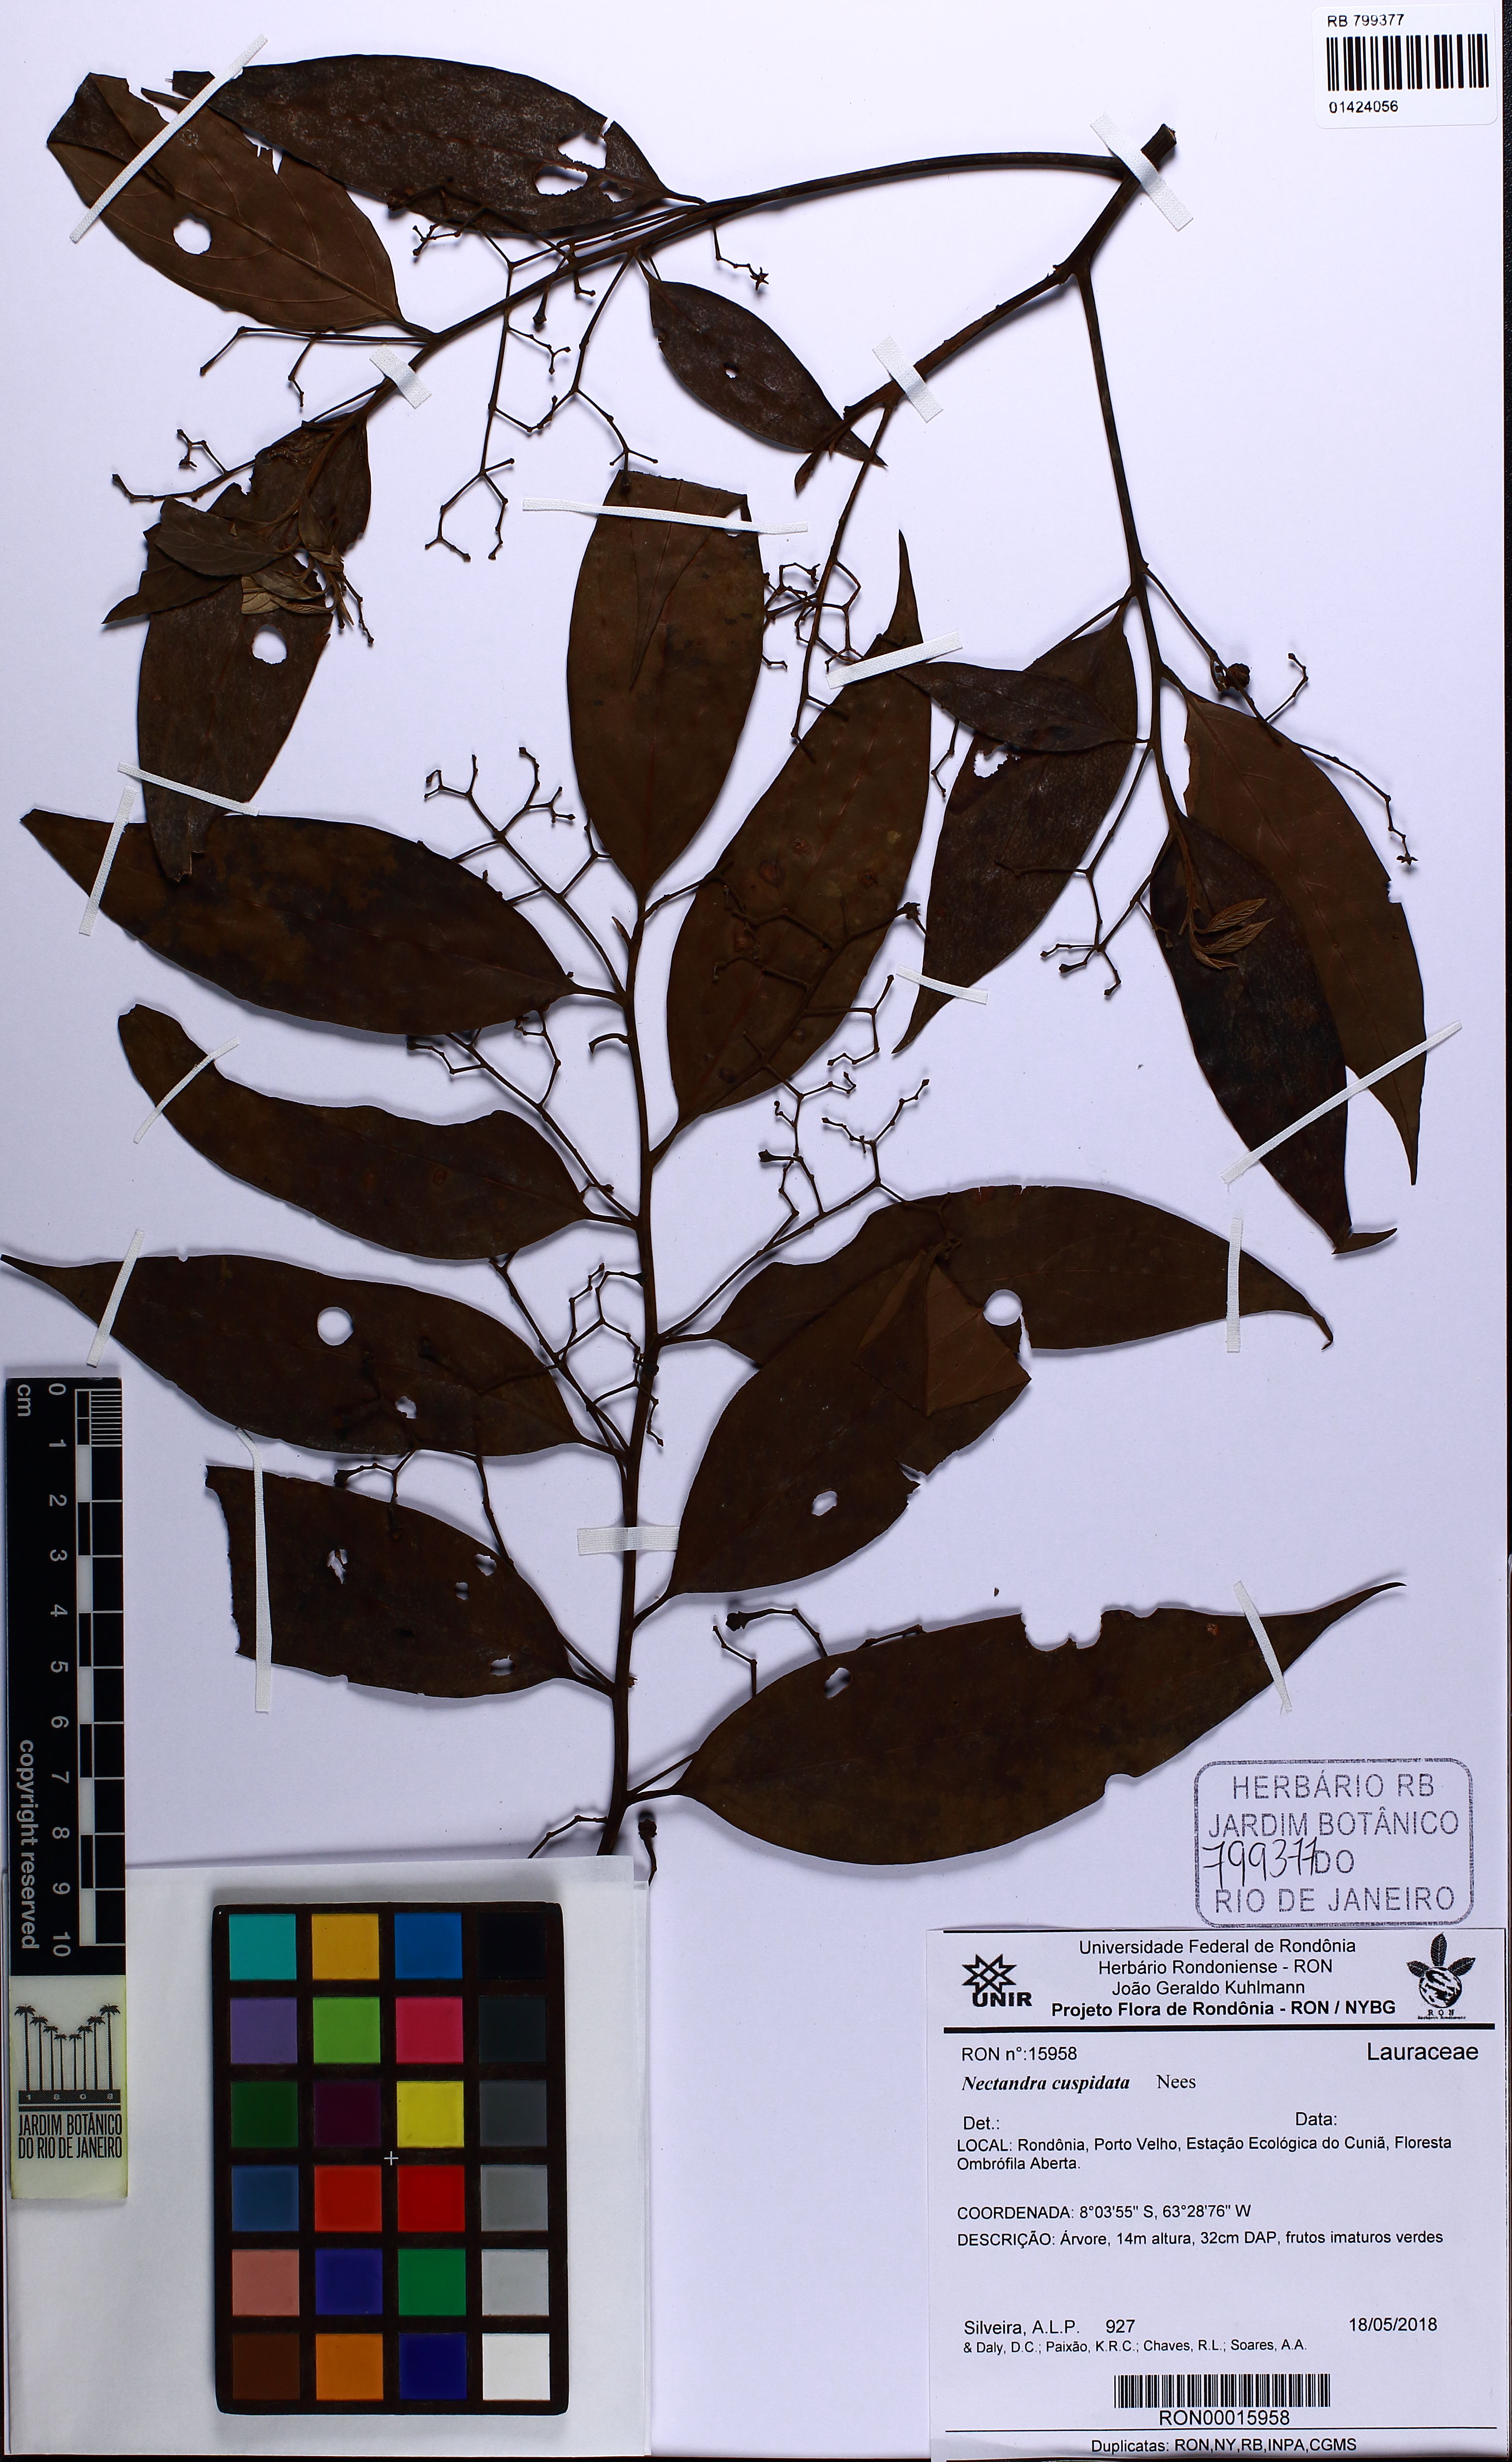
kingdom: Plantae
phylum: Tracheophyta
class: Magnoliopsida
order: Laurales
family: Lauraceae
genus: Nectandra
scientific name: Nectandra cuspidata
